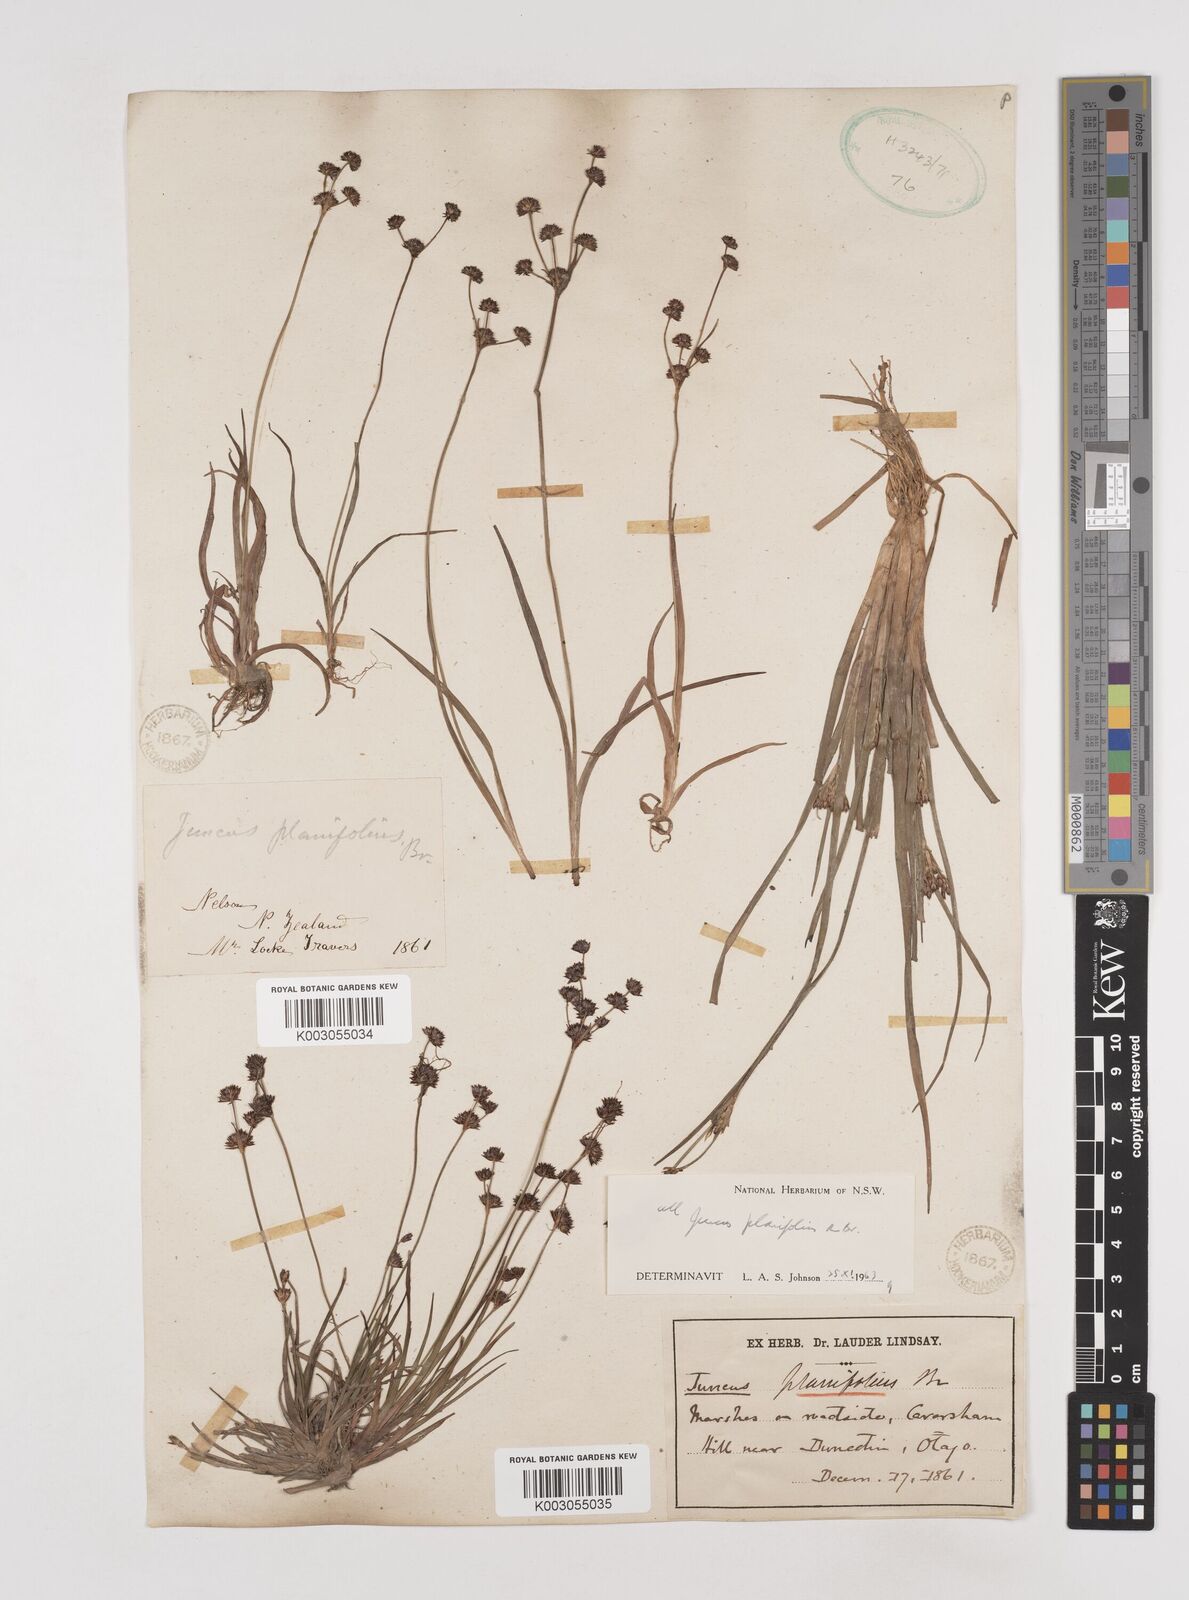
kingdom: Plantae
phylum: Tracheophyta
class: Liliopsida
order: Poales
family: Juncaceae
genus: Juncus
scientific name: Juncus planifolius
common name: Broadleaf rush
